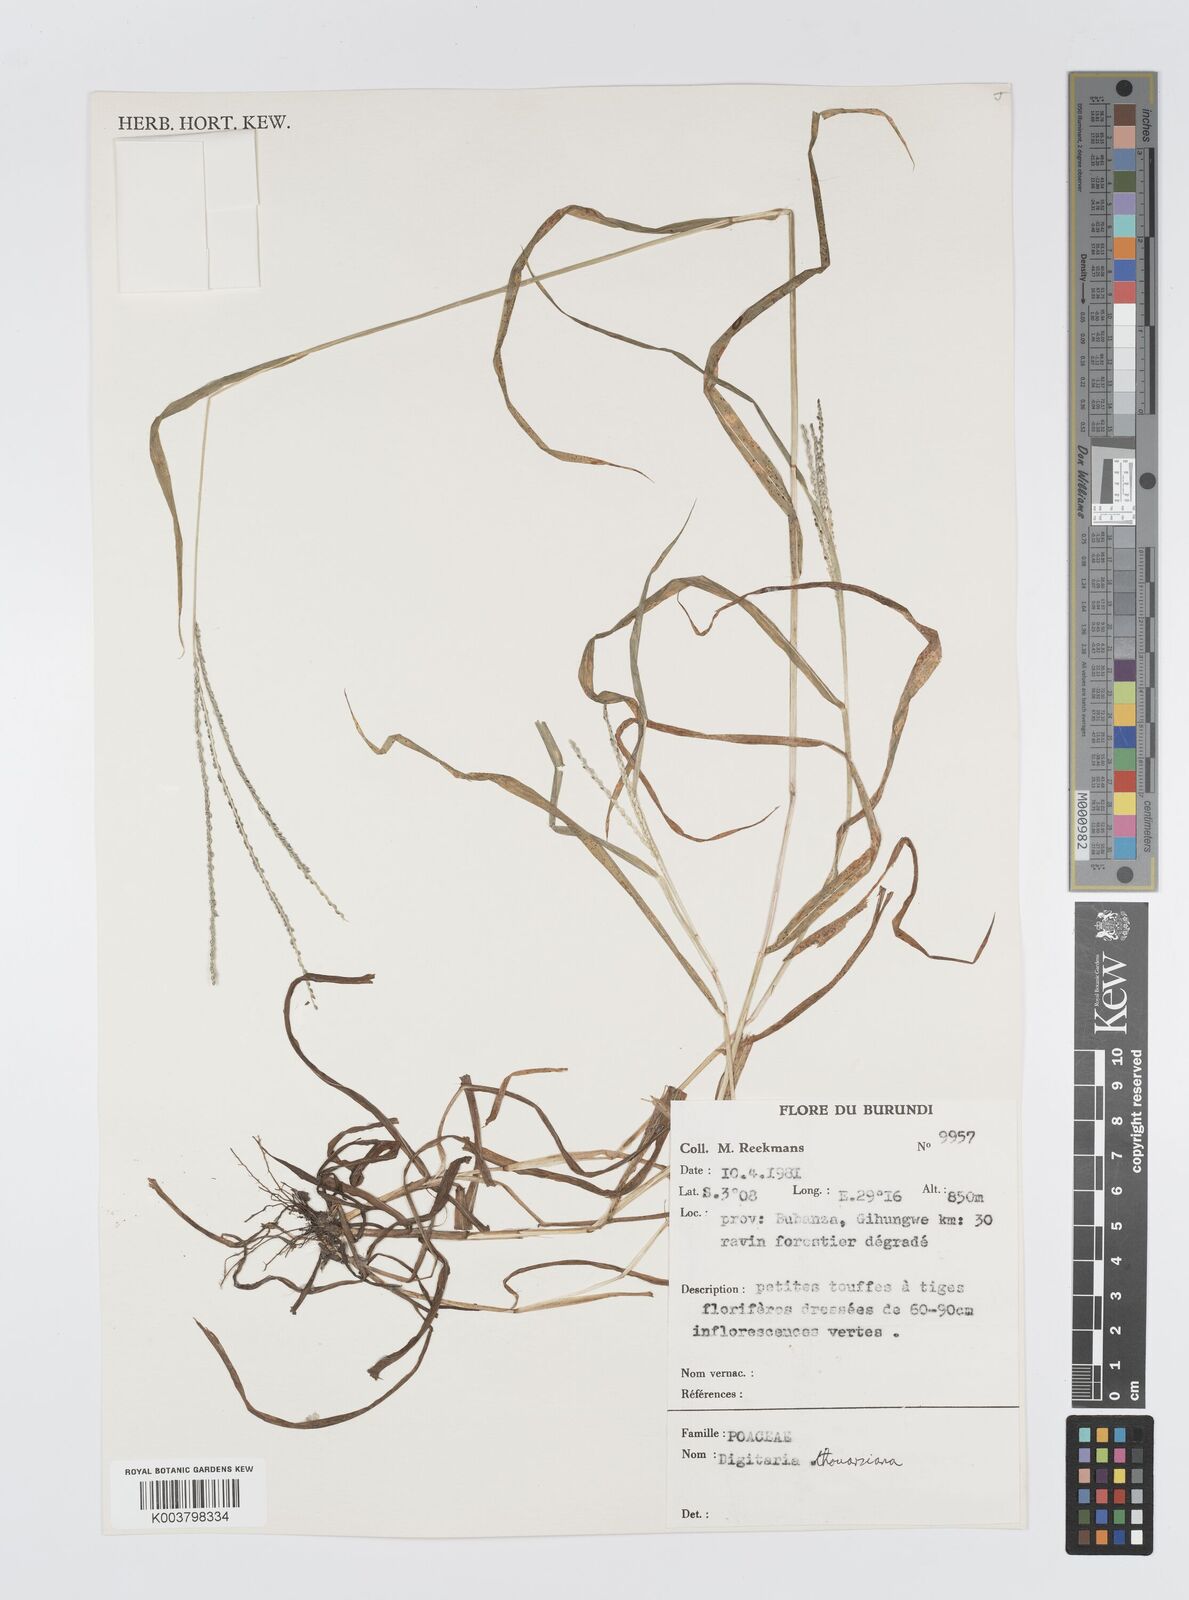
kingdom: Plantae
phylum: Tracheophyta
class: Liliopsida
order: Poales
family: Poaceae
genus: Digitaria
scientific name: Digitaria thouarsiana
